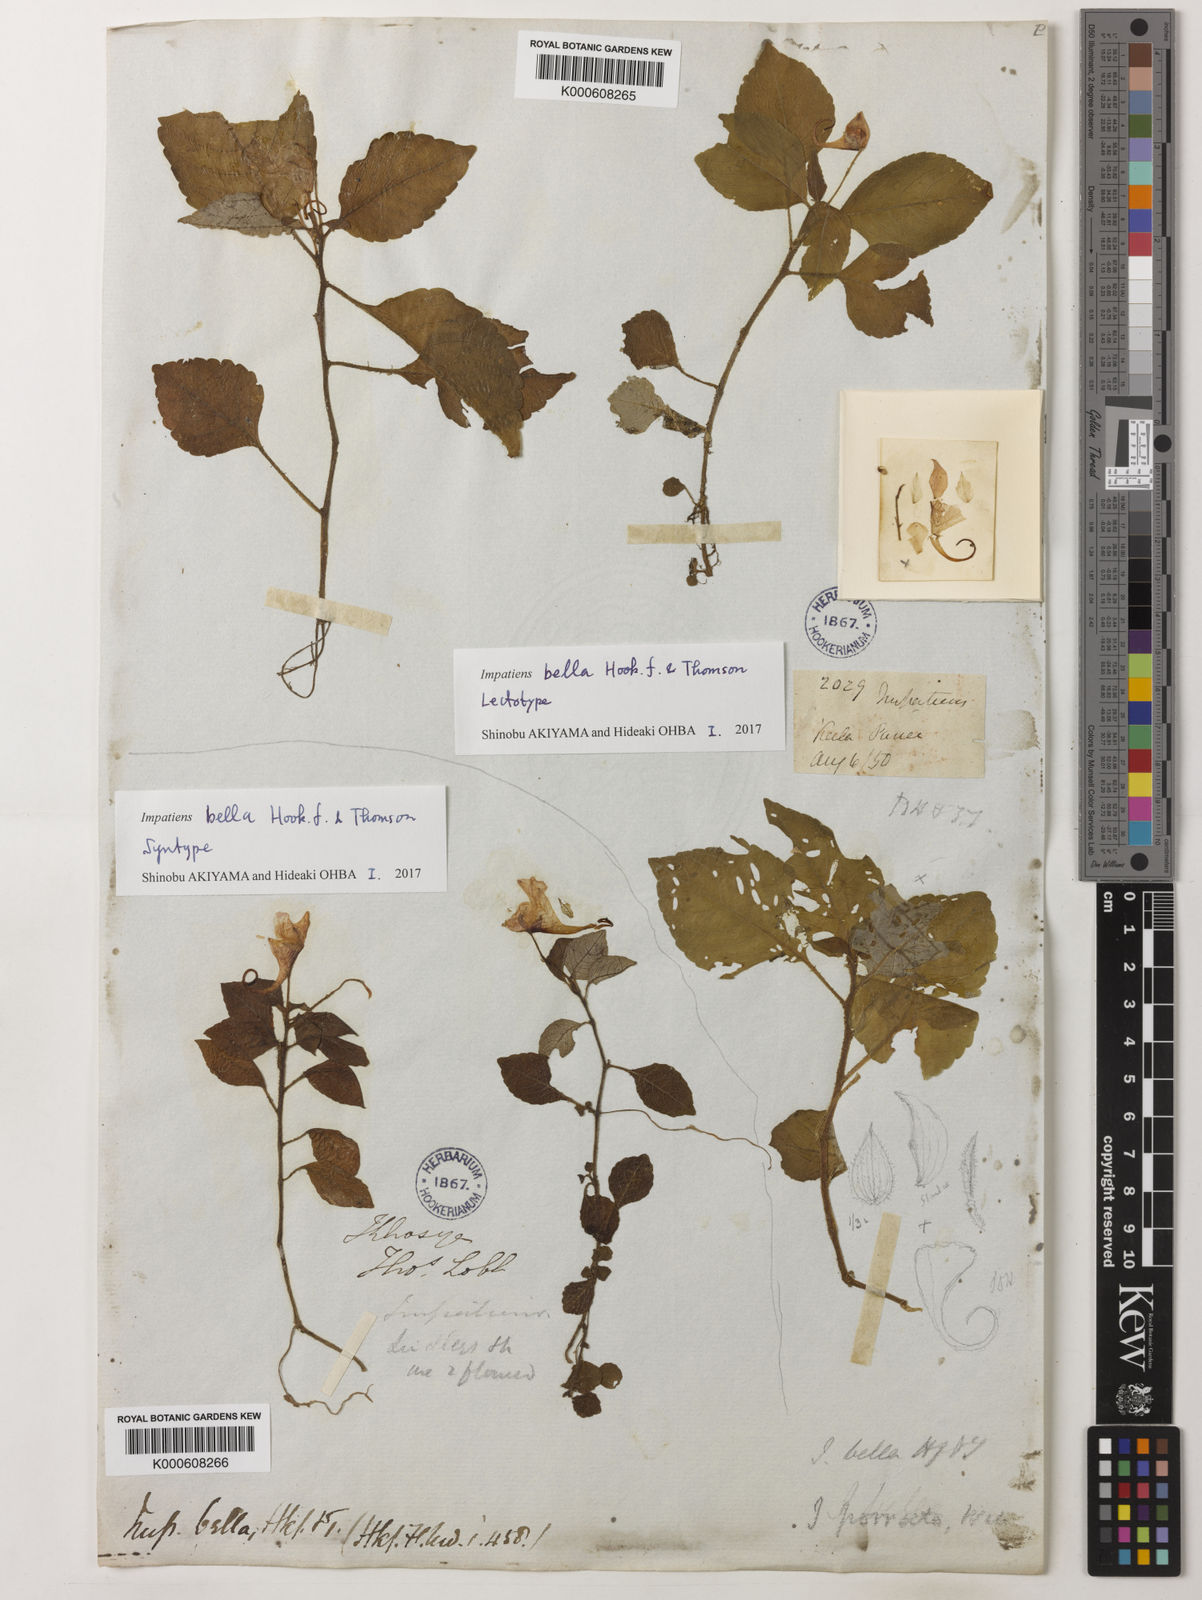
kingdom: Plantae
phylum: Tracheophyta
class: Magnoliopsida
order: Ericales
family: Balsaminaceae
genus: Impatiens
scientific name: Impatiens
